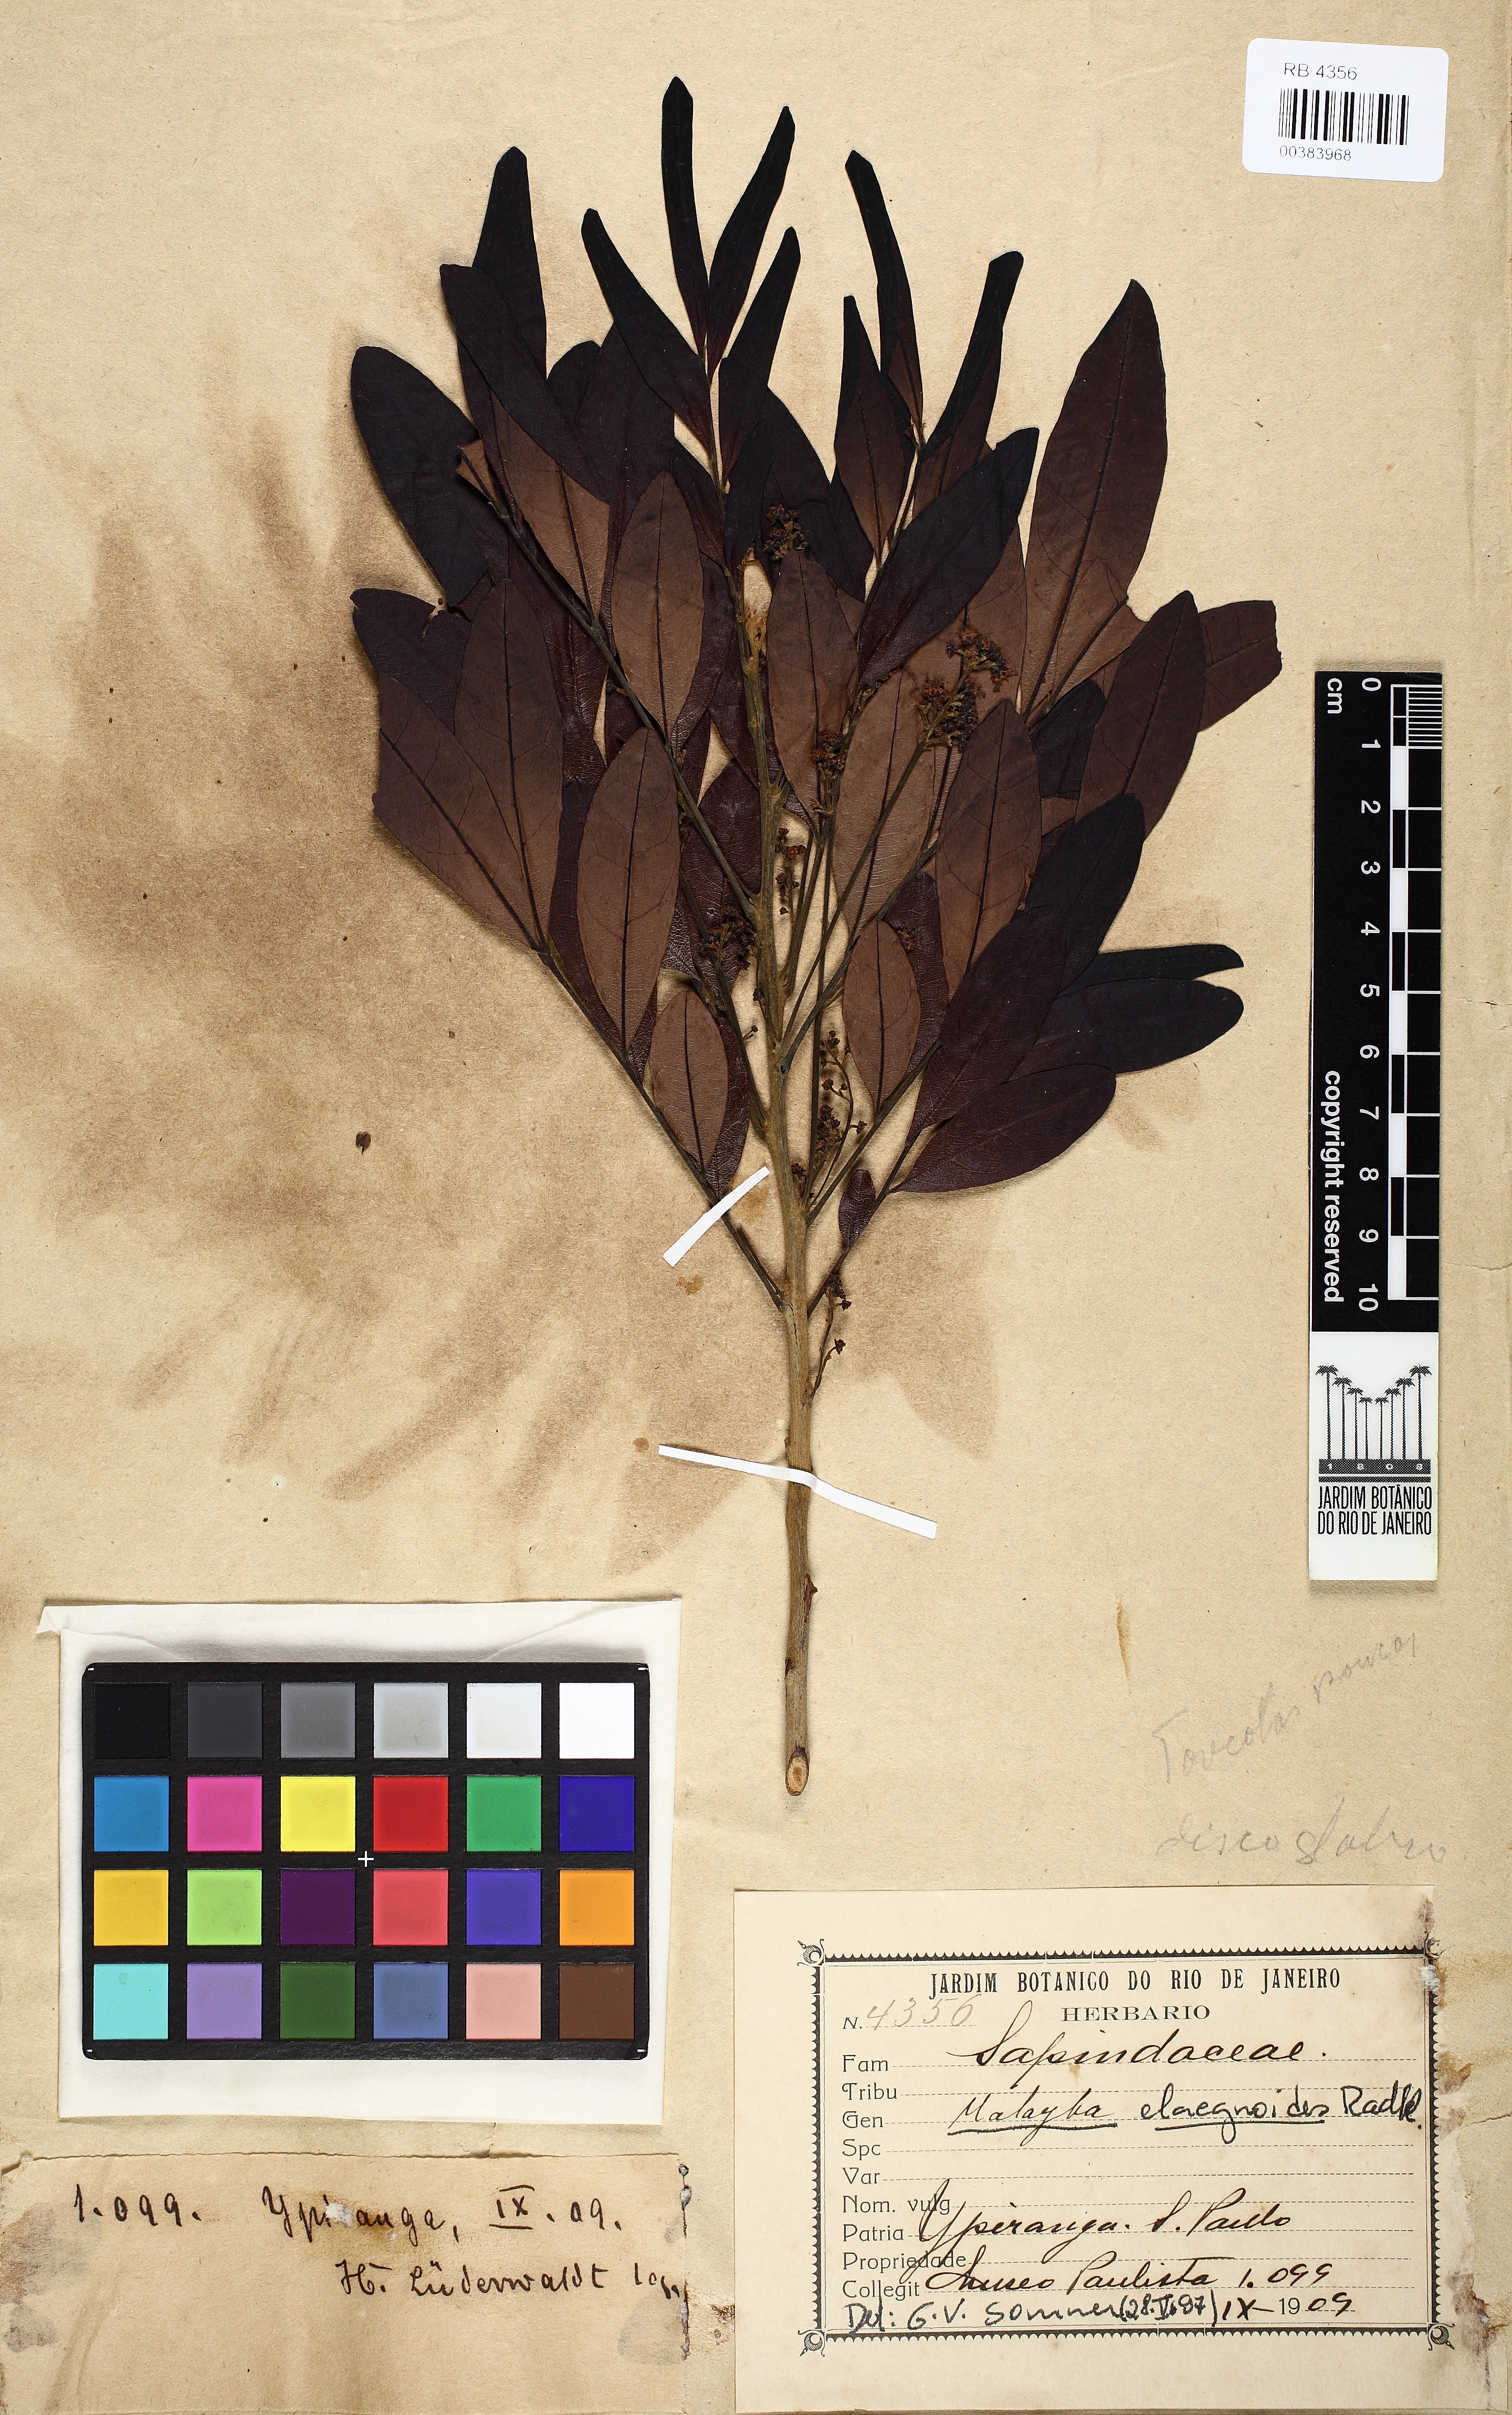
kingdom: Plantae
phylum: Tracheophyta
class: Magnoliopsida
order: Sapindales
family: Sapindaceae
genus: Matayba
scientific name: Matayba elaeagnoides
